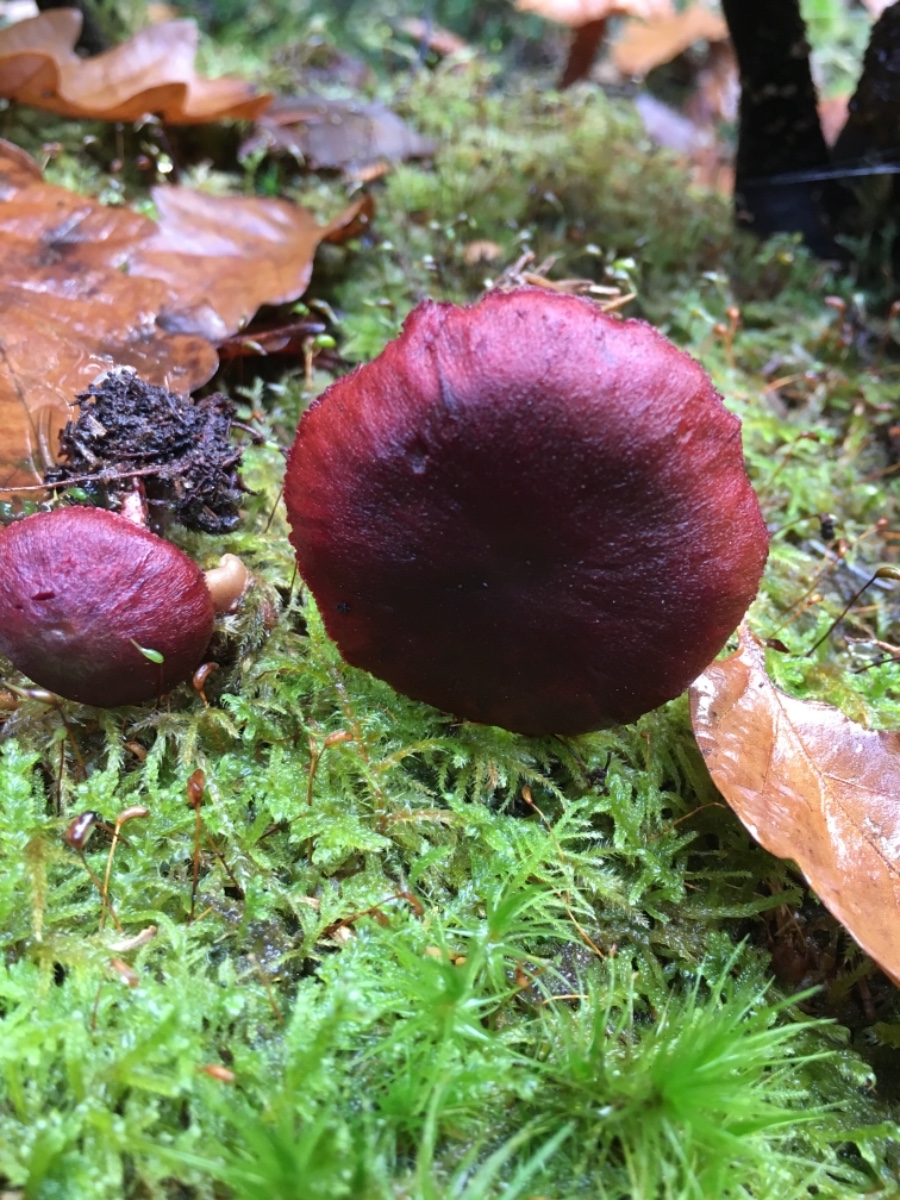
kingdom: Fungi
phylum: Basidiomycota
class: Agaricomycetes
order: Agaricales
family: Cortinariaceae
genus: Cortinarius
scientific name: Cortinarius sanguineus
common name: blodrød slørhat
